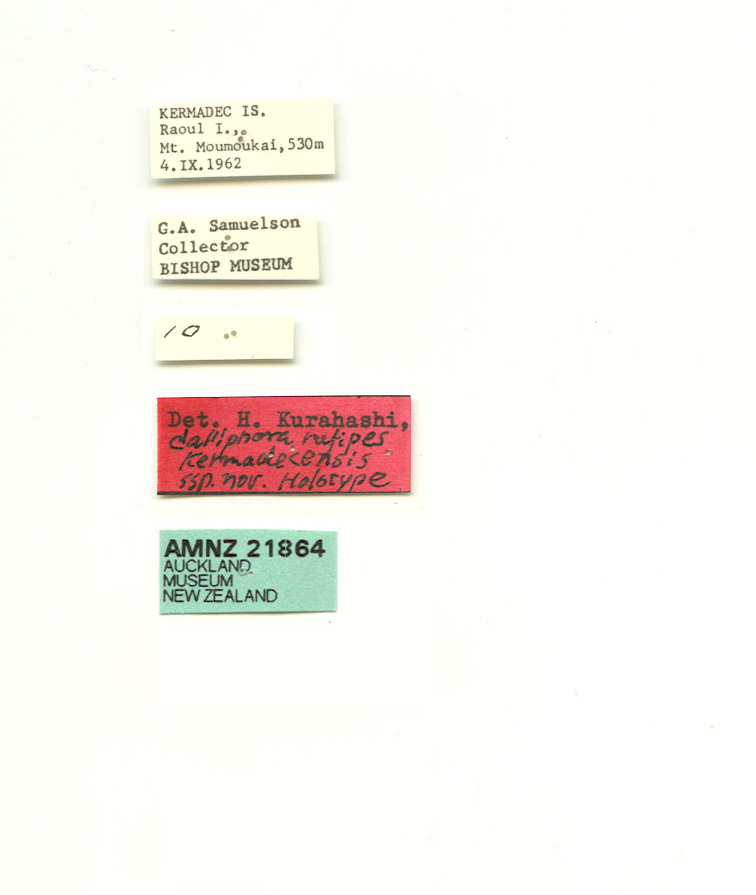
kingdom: Animalia
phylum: Arthropoda
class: Insecta
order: Diptera
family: Calliphoridae
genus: Calliphora
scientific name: Calliphora hilli
